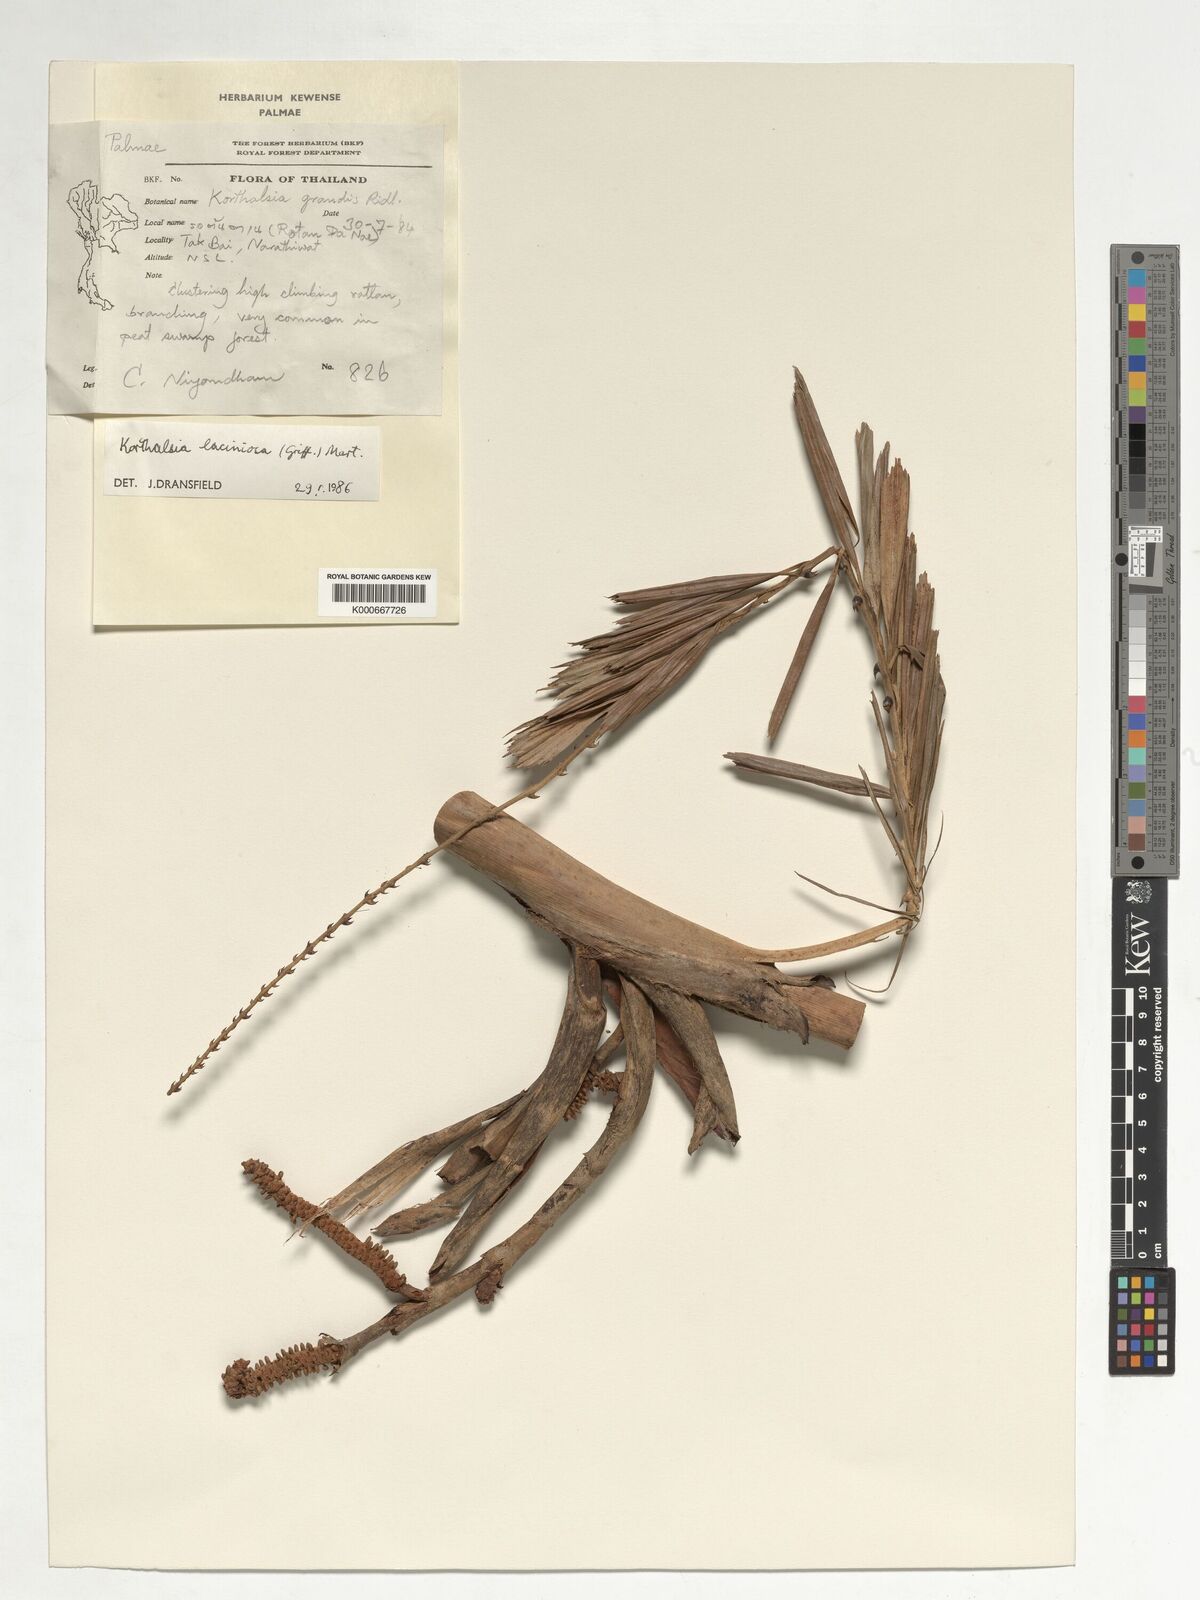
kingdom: Plantae
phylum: Tracheophyta
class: Liliopsida
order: Arecales
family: Arecaceae
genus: Korthalsia
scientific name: Korthalsia laciniosa
